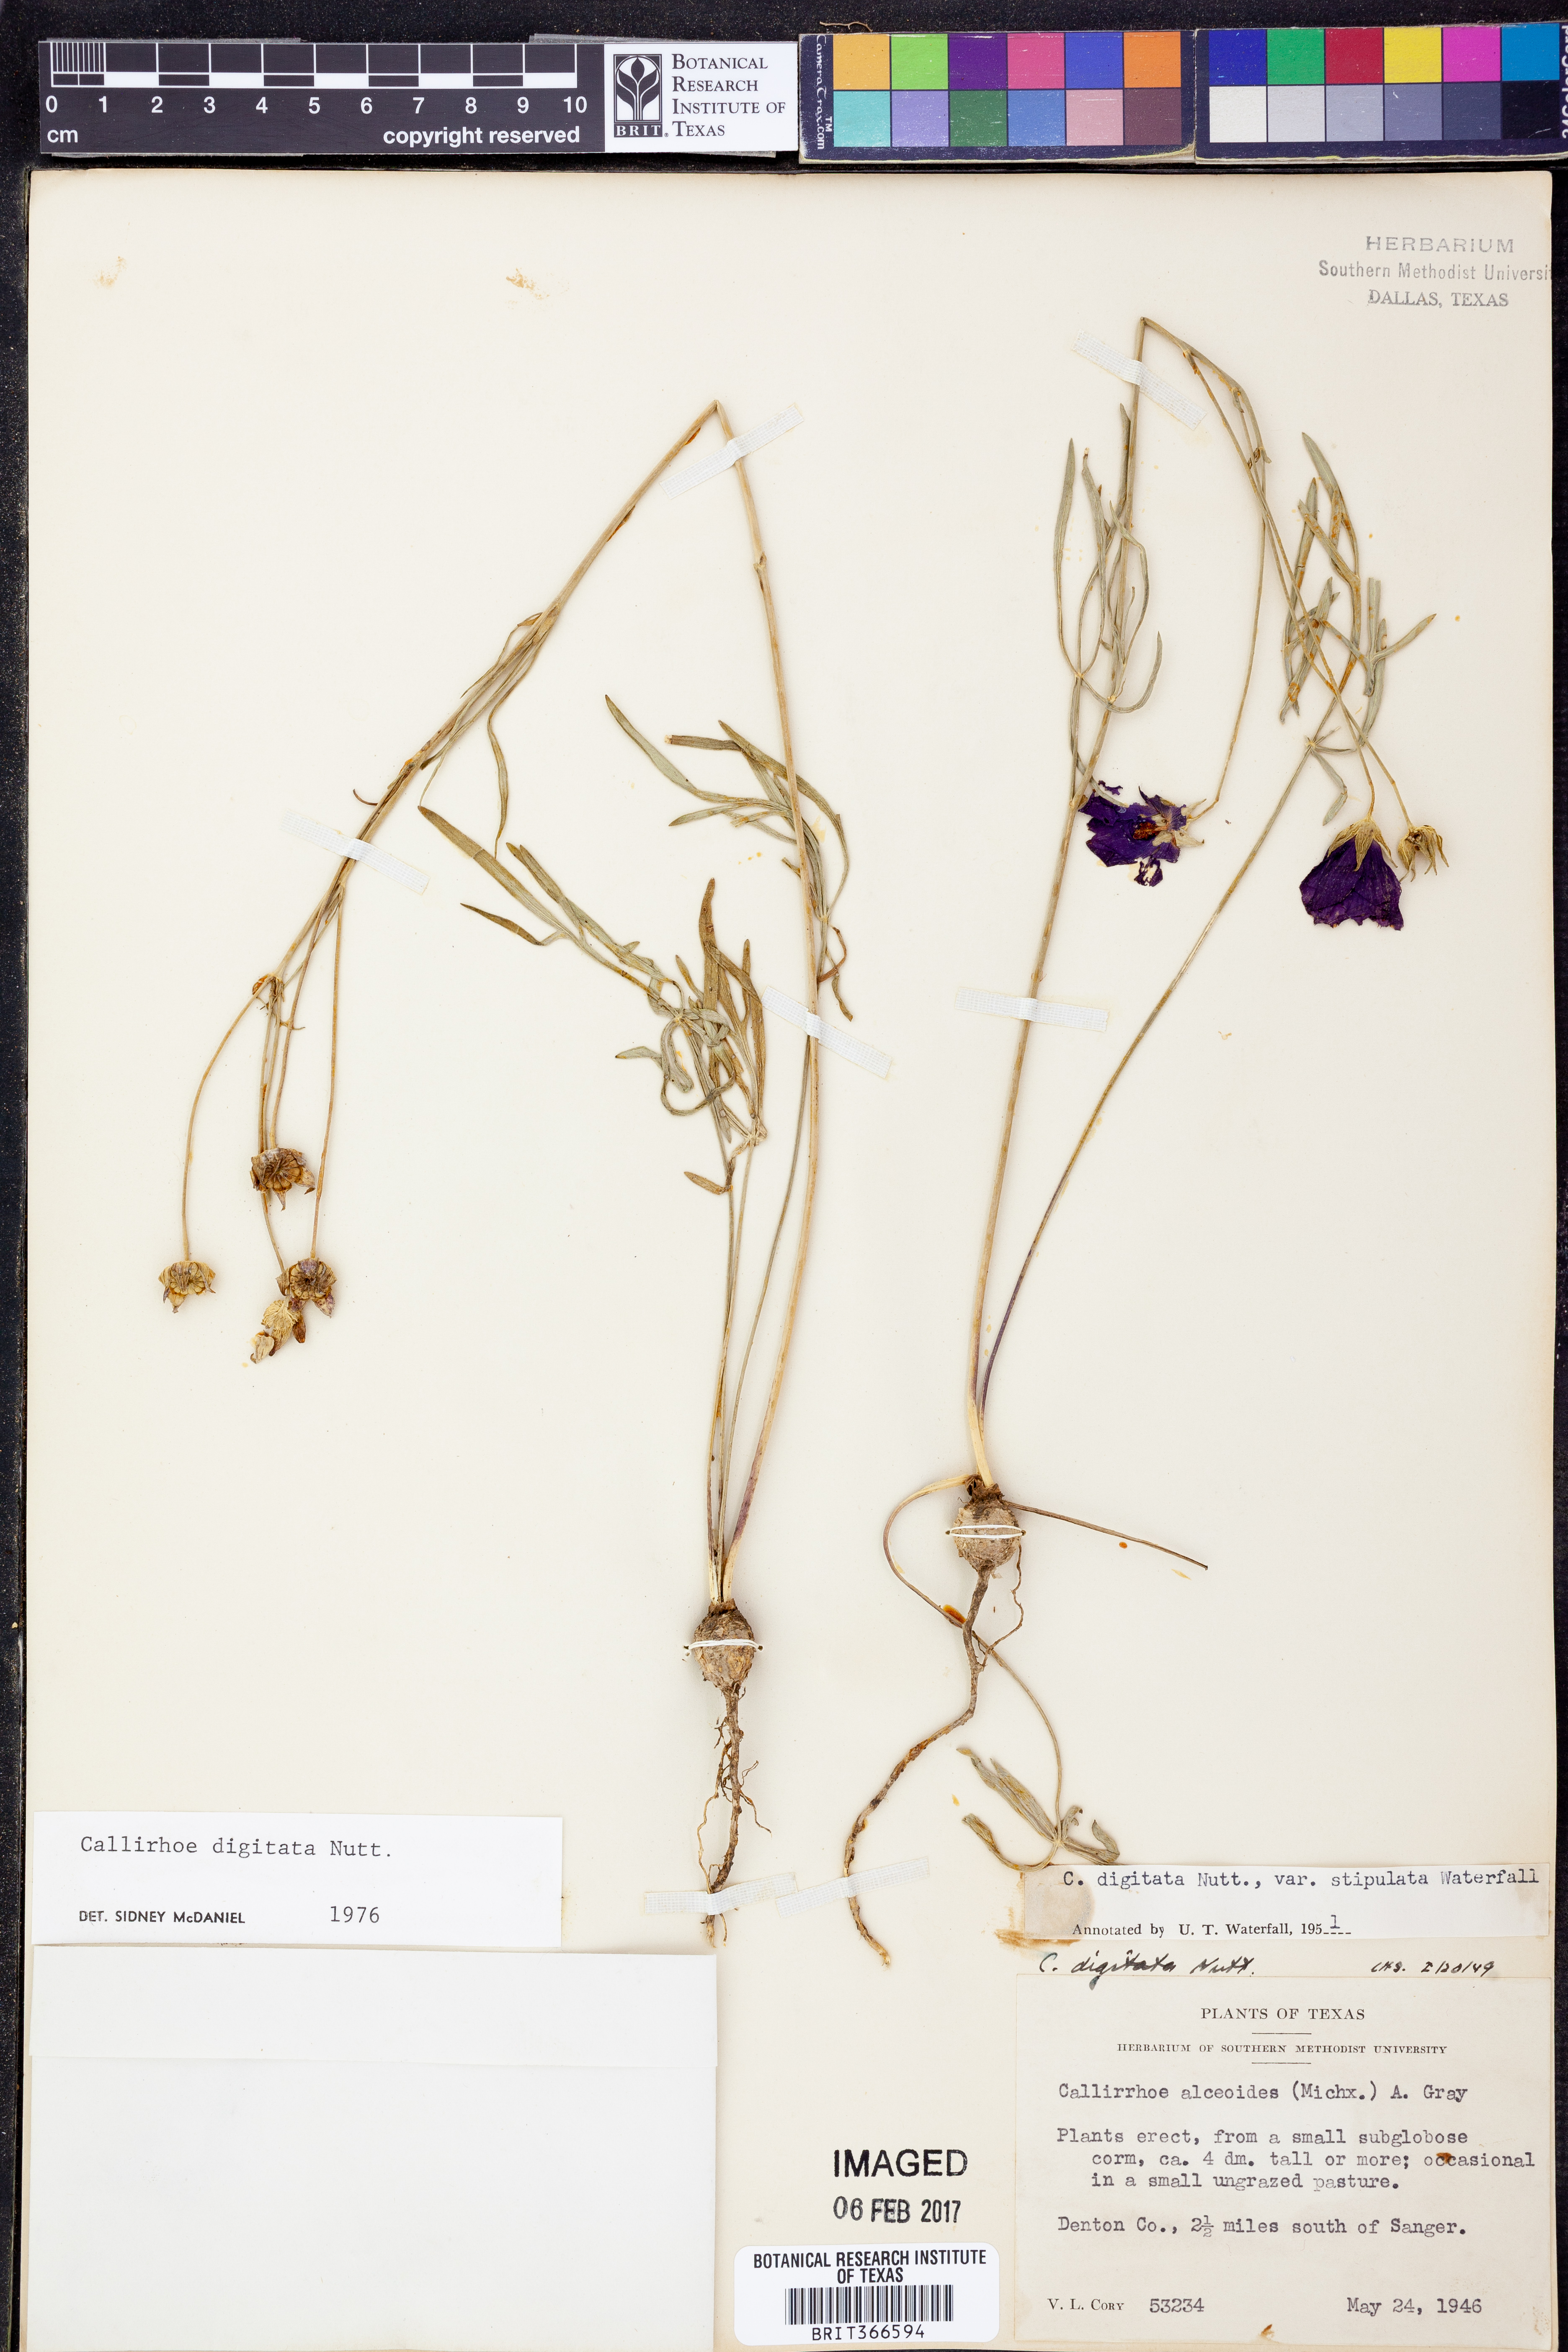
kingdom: Plantae
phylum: Tracheophyta
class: Magnoliopsida
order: Malvales
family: Malvaceae
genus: Callirhoe
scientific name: Callirhoe digitata
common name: Finger poppy-mallow
